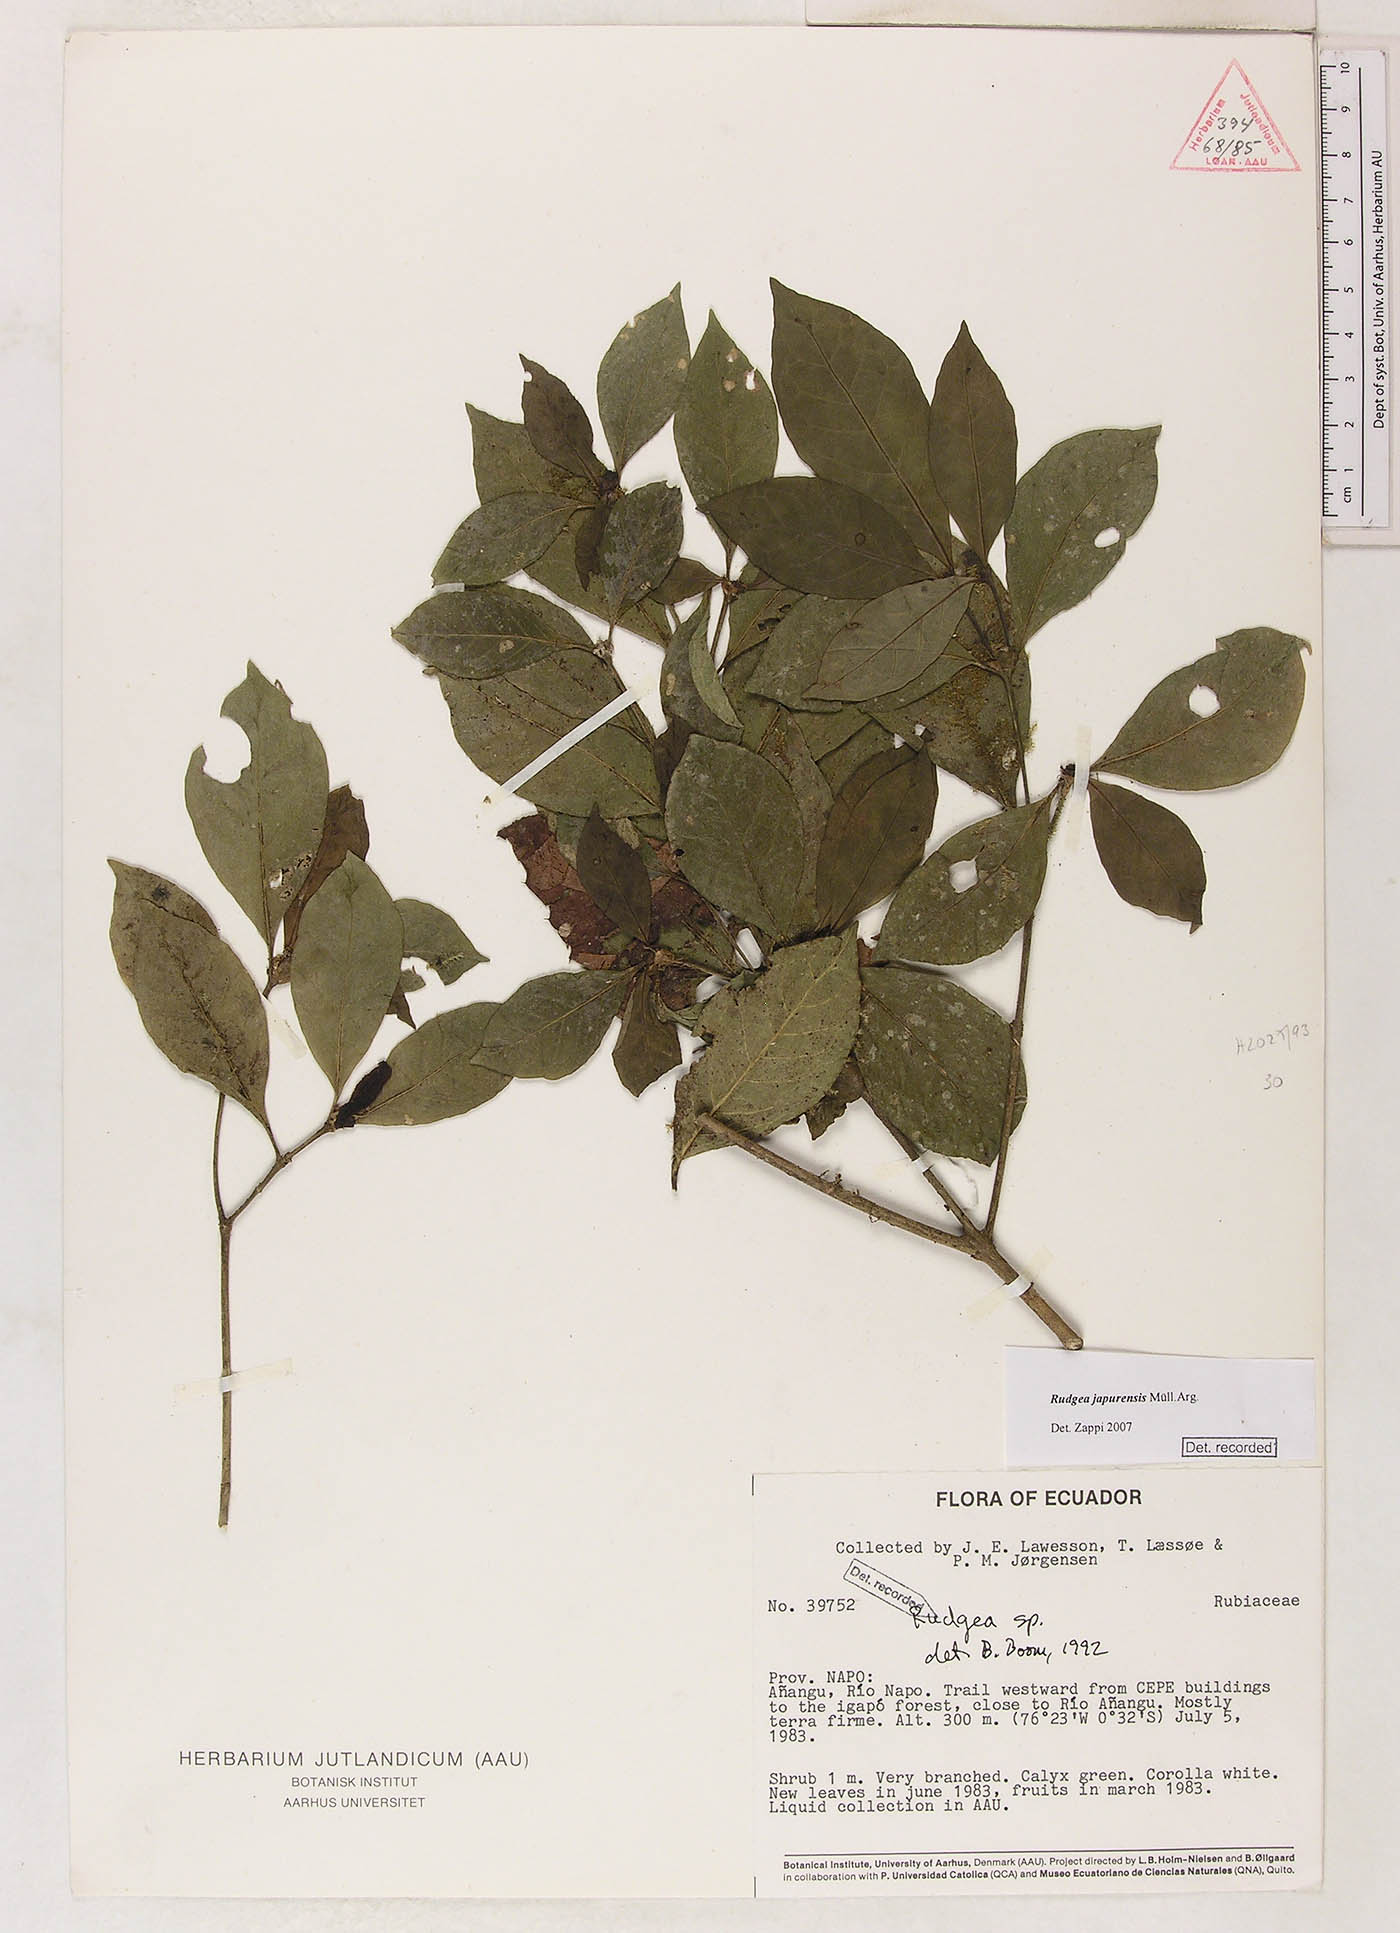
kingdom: Plantae
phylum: Tracheophyta
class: Magnoliopsida
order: Gentianales
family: Rubiaceae
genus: Rudgea
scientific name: Rudgea panurensis
